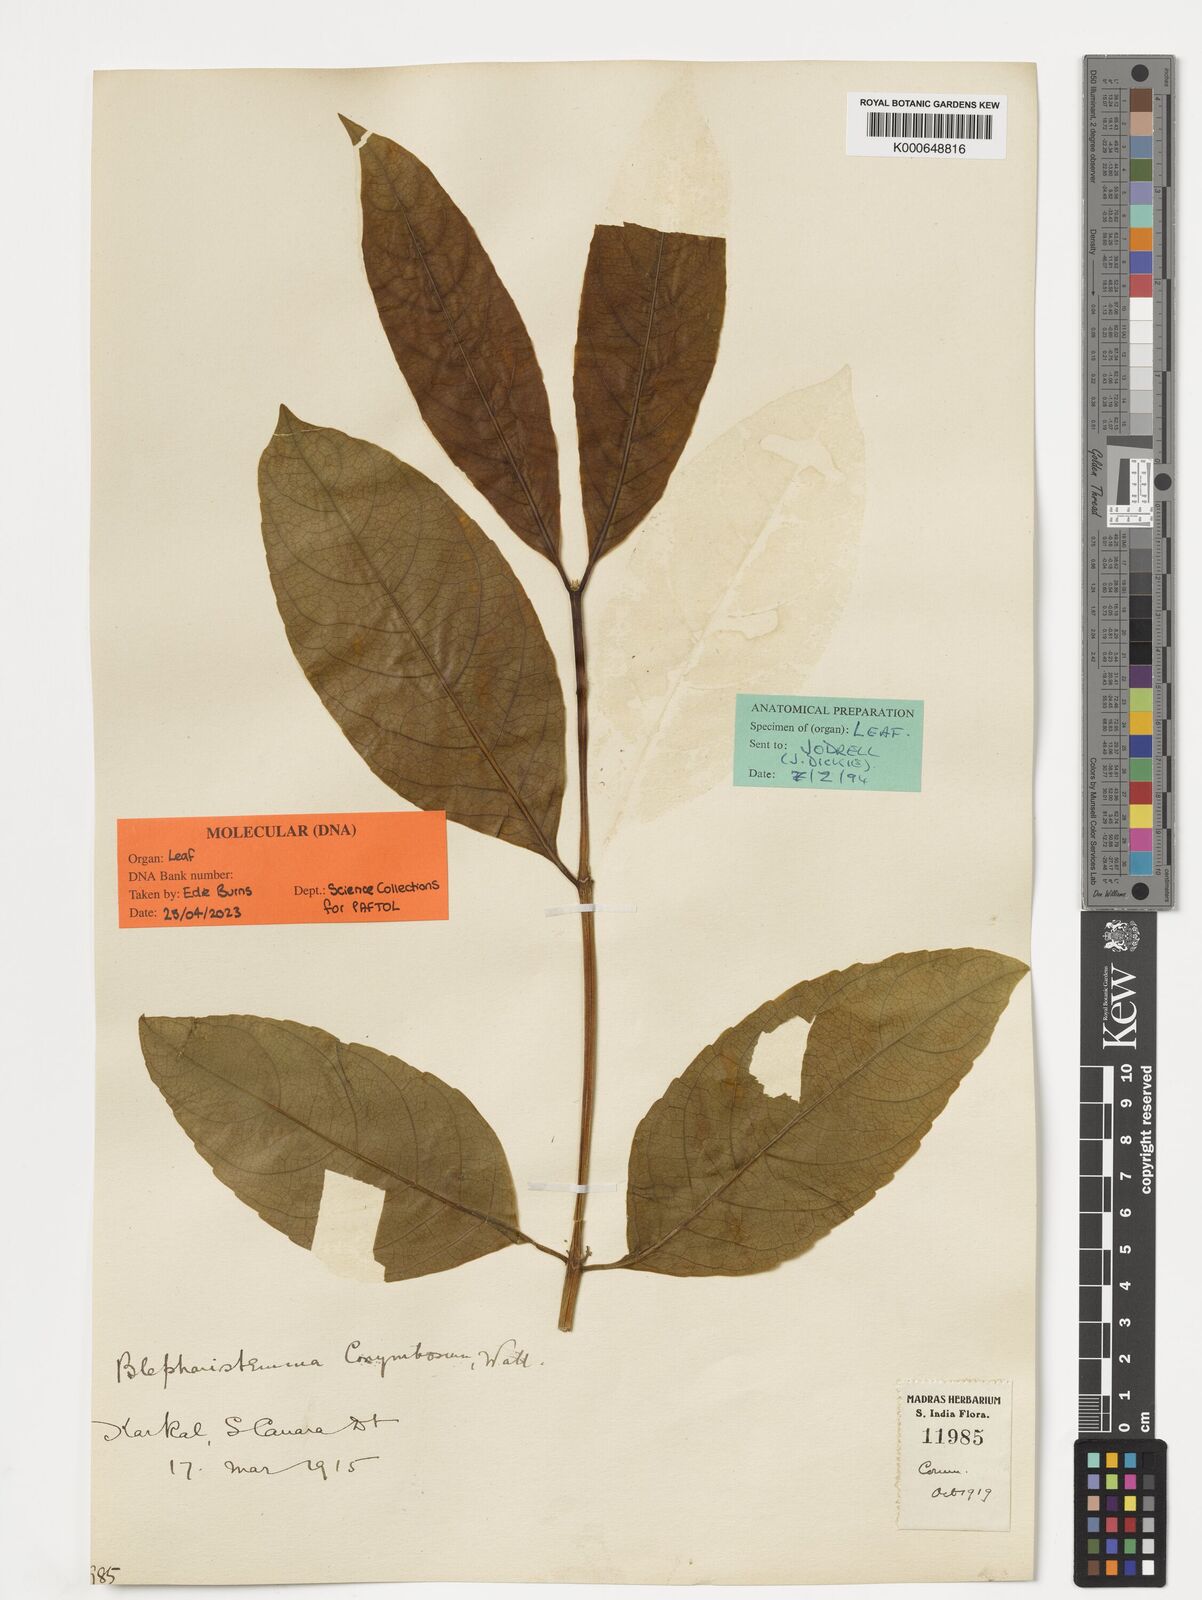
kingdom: Plantae
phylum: Tracheophyta
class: Magnoliopsida
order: Malpighiales
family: Rhizophoraceae
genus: Blepharistemma
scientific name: Blepharistemma serratum
